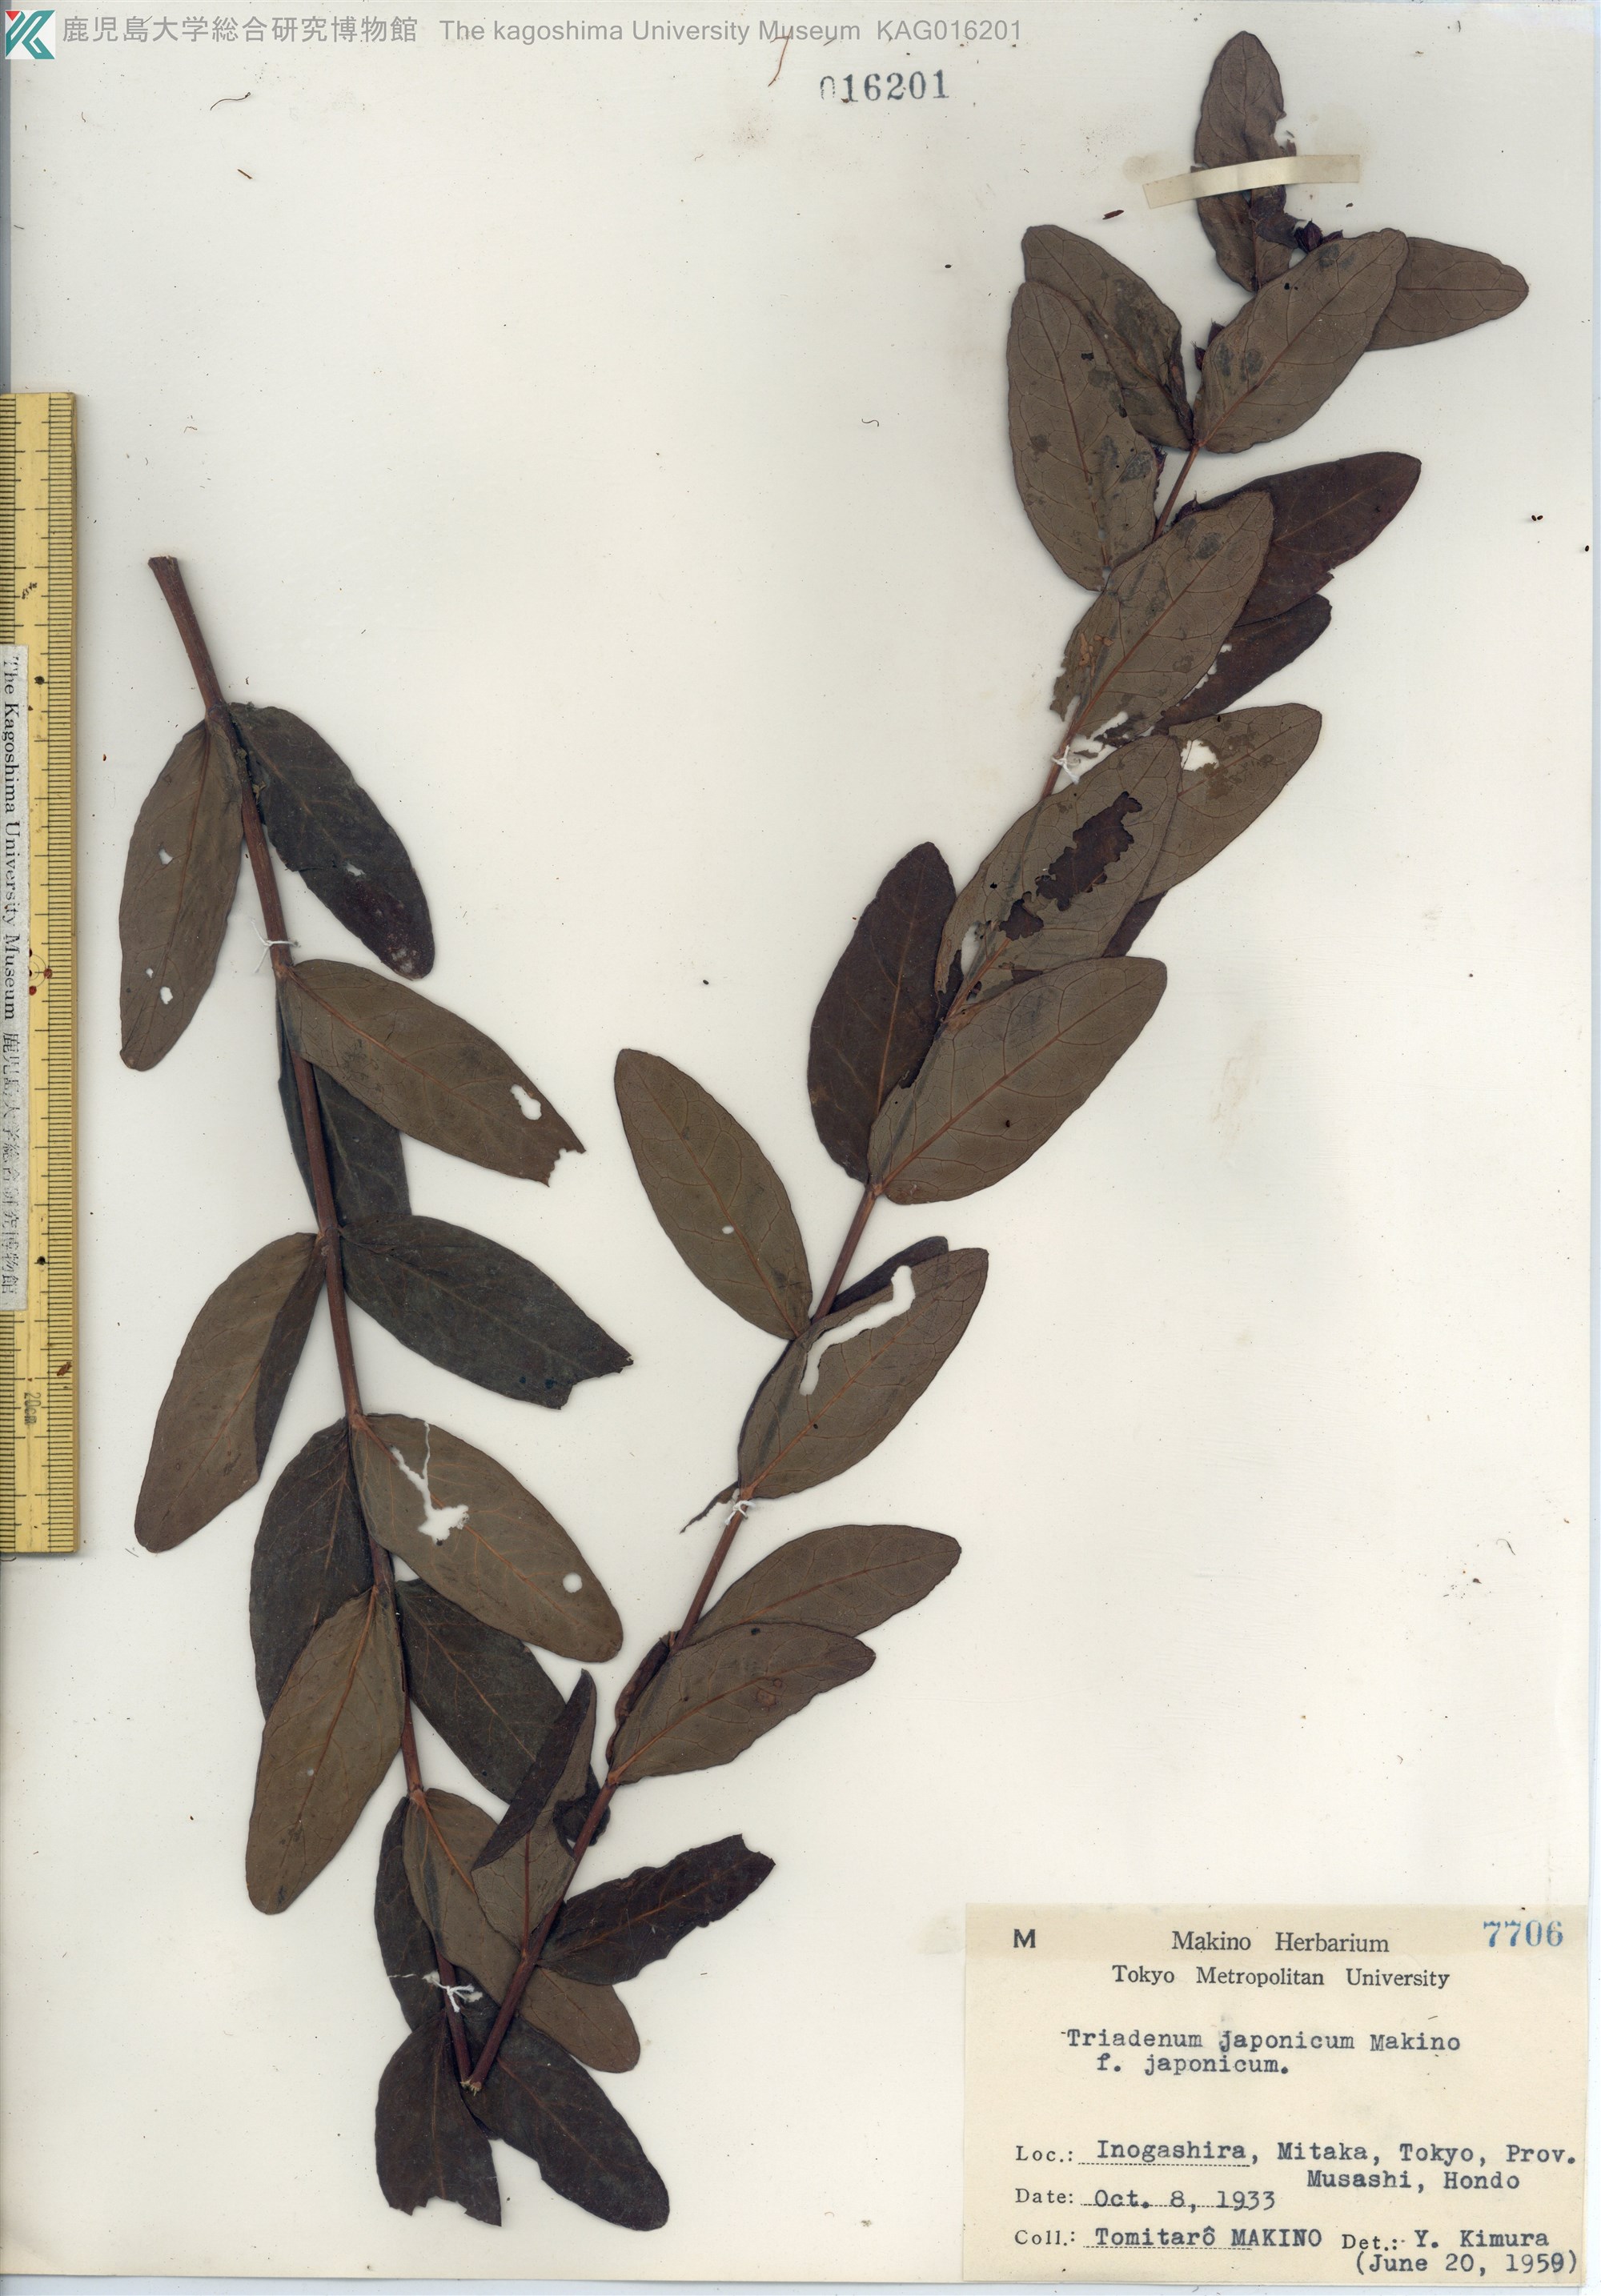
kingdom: Plantae
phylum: Tracheophyta
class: Magnoliopsida
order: Malpighiales
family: Hypericaceae
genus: Triadenum
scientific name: Triadenum japonicum
